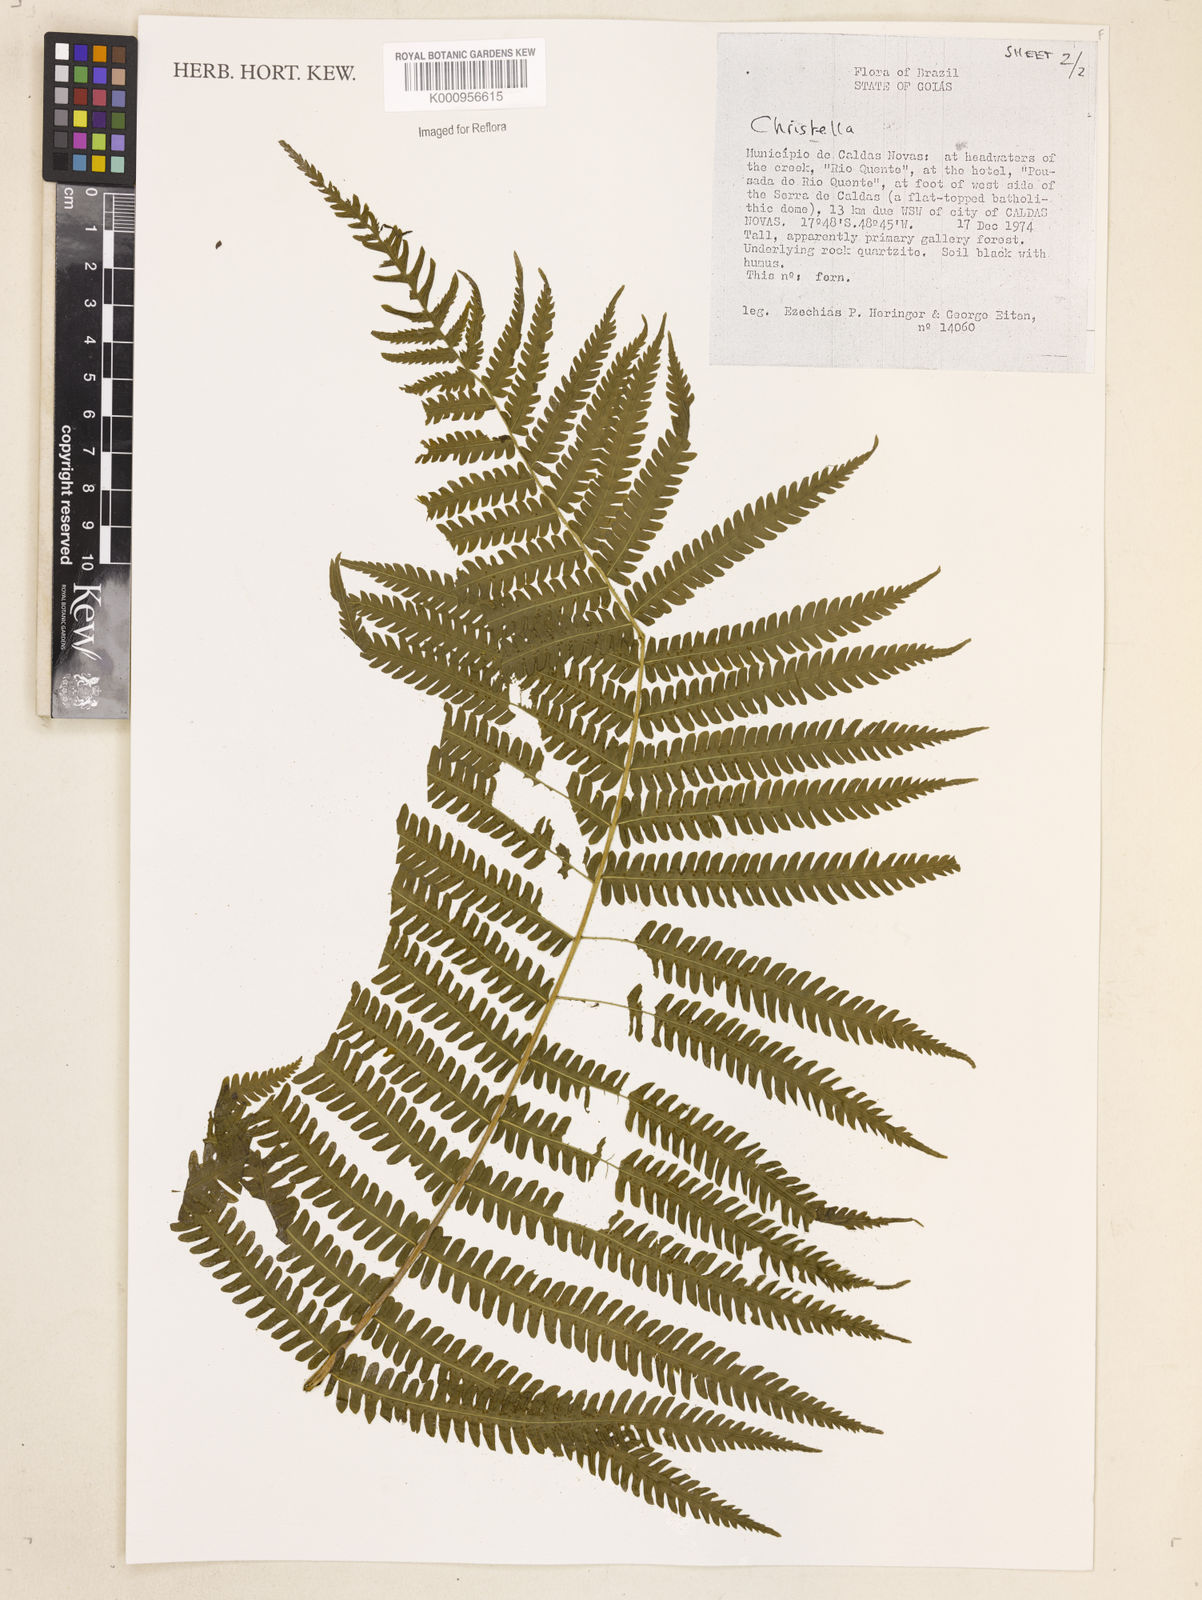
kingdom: Plantae
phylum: Tracheophyta
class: Polypodiopsida
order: Polypodiales
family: Thelypteridaceae
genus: Christella
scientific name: Christella
